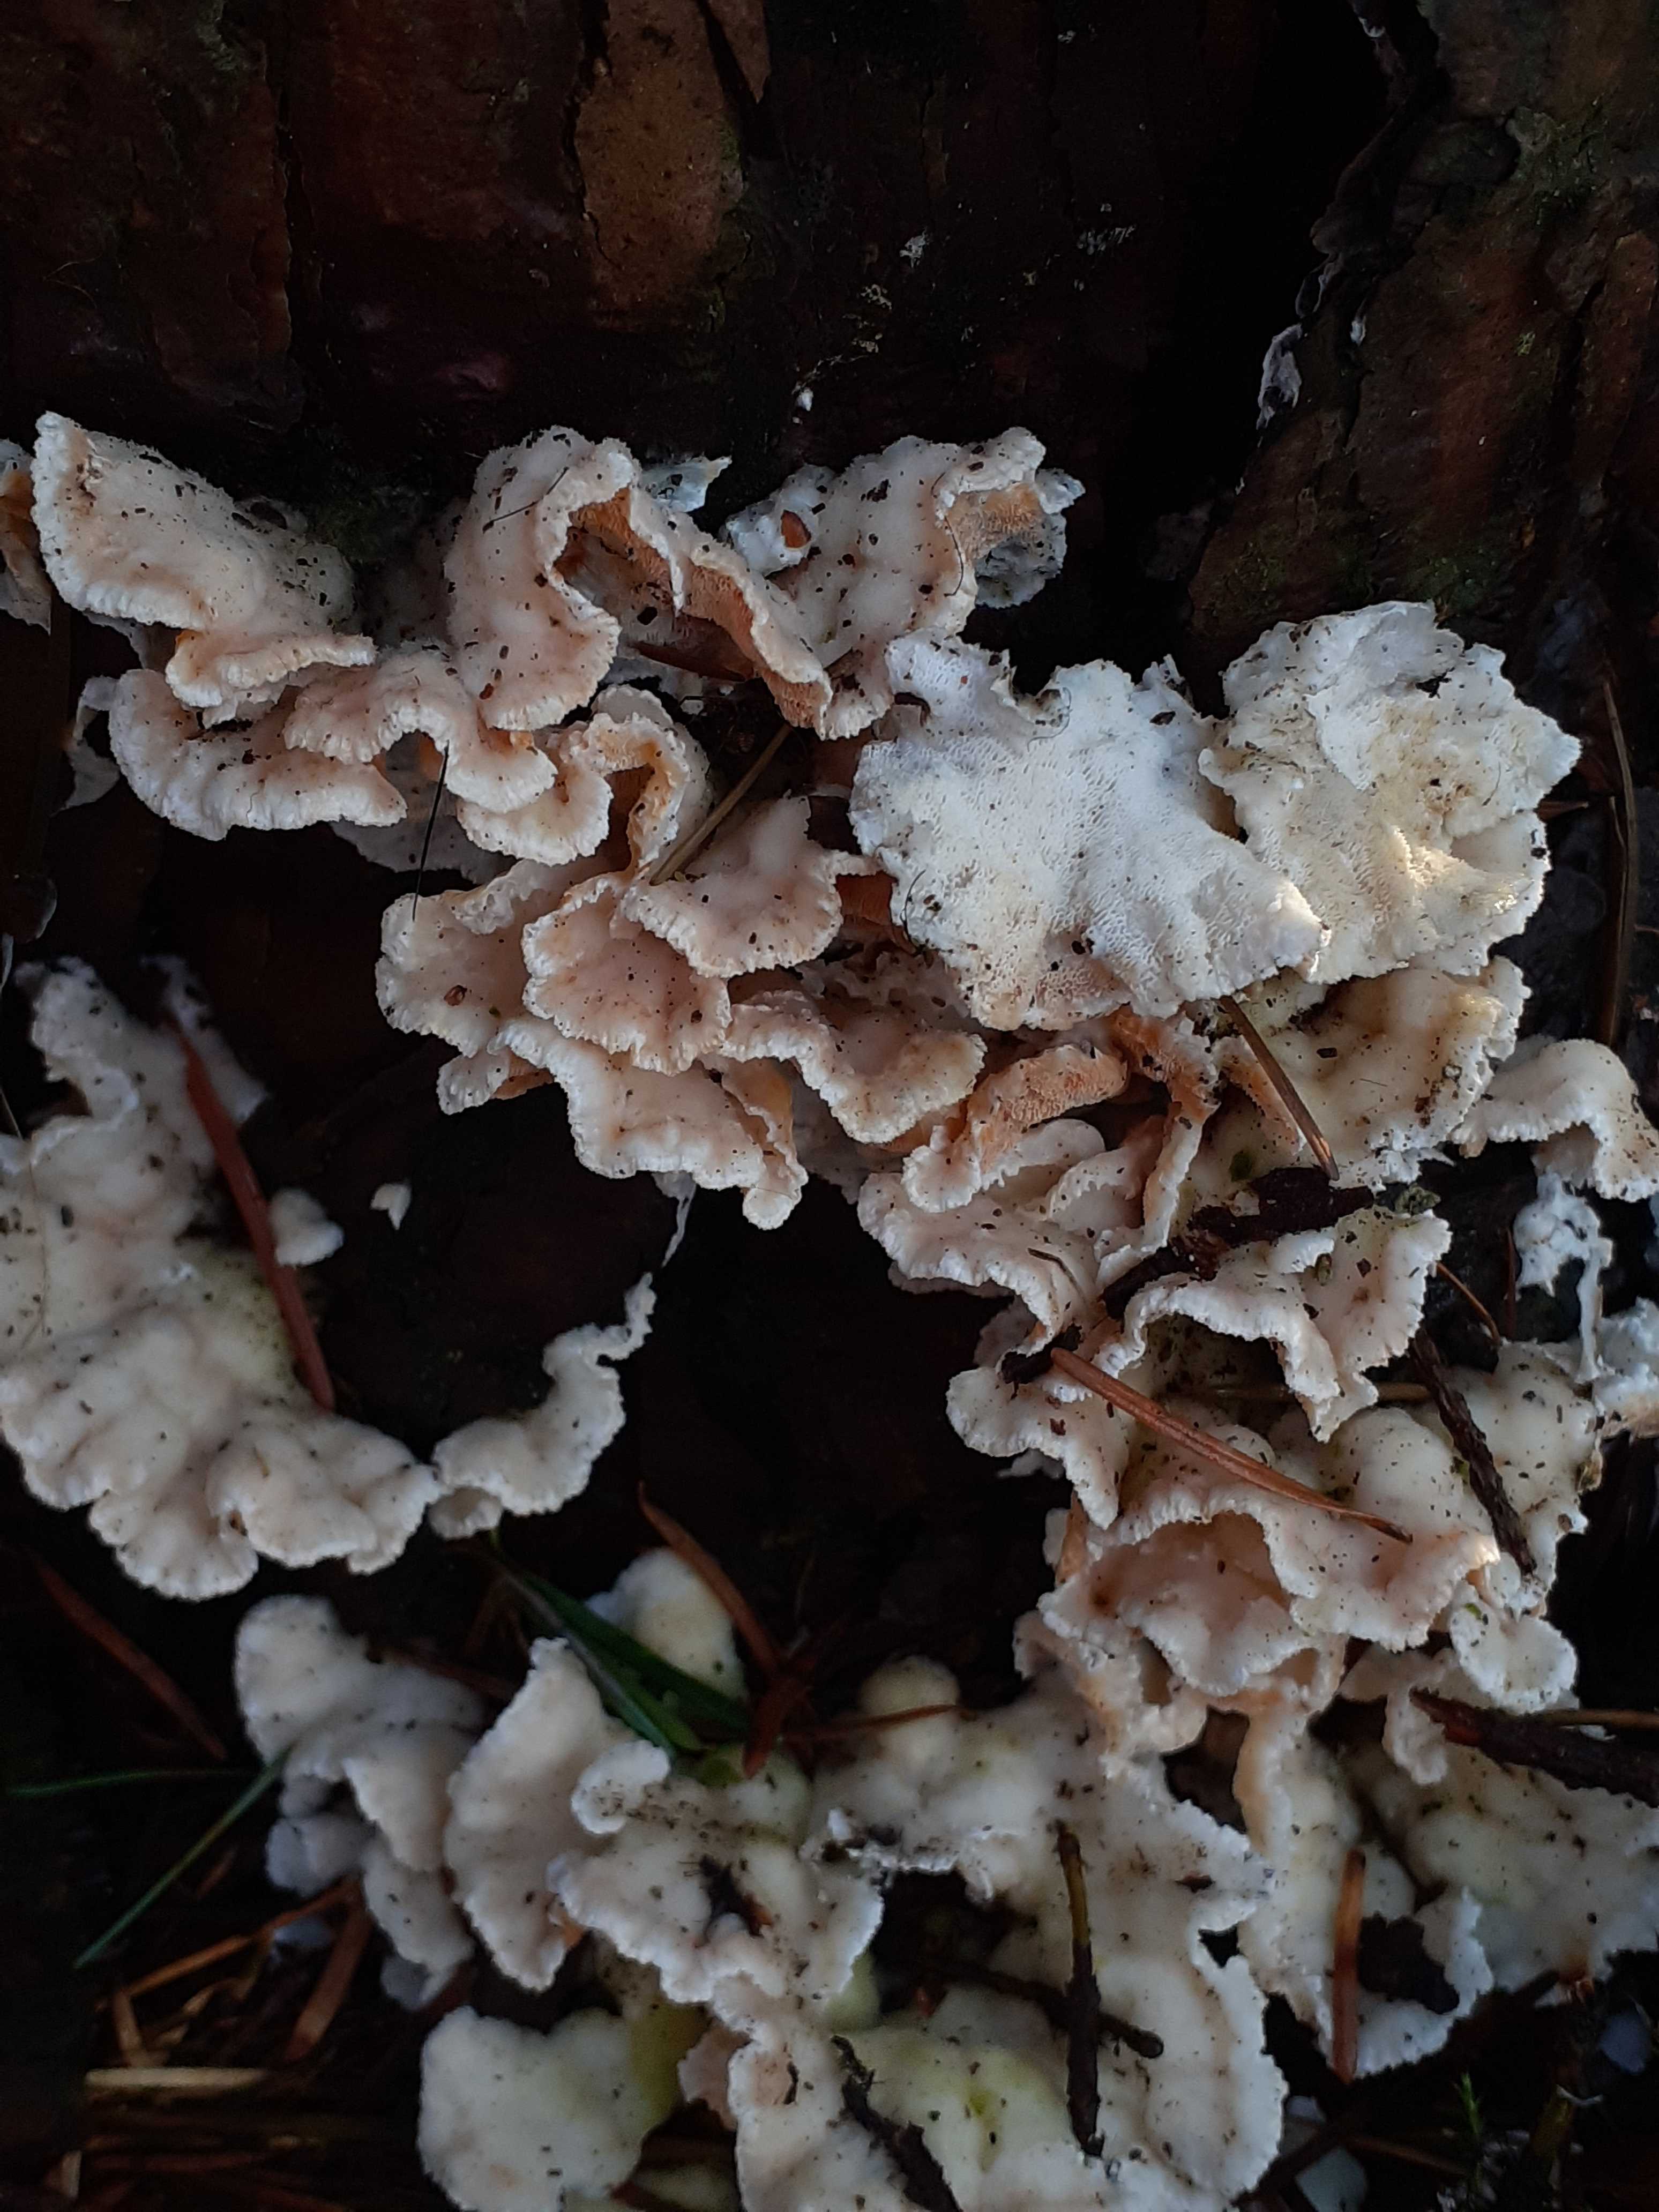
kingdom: Fungi
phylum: Basidiomycota
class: Agaricomycetes
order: Polyporales
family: Incrustoporiaceae
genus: Skeletocutis
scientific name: Skeletocutis amorpha
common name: orange krystalporesvamp
